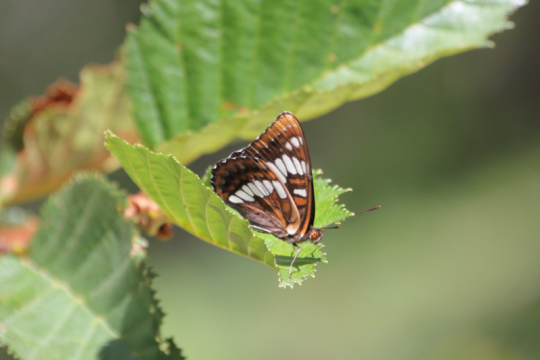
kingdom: Animalia
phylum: Arthropoda
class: Insecta
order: Lepidoptera
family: Nymphalidae
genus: Limenitis
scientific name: Limenitis lorquini
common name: Lorquin's Admiral
